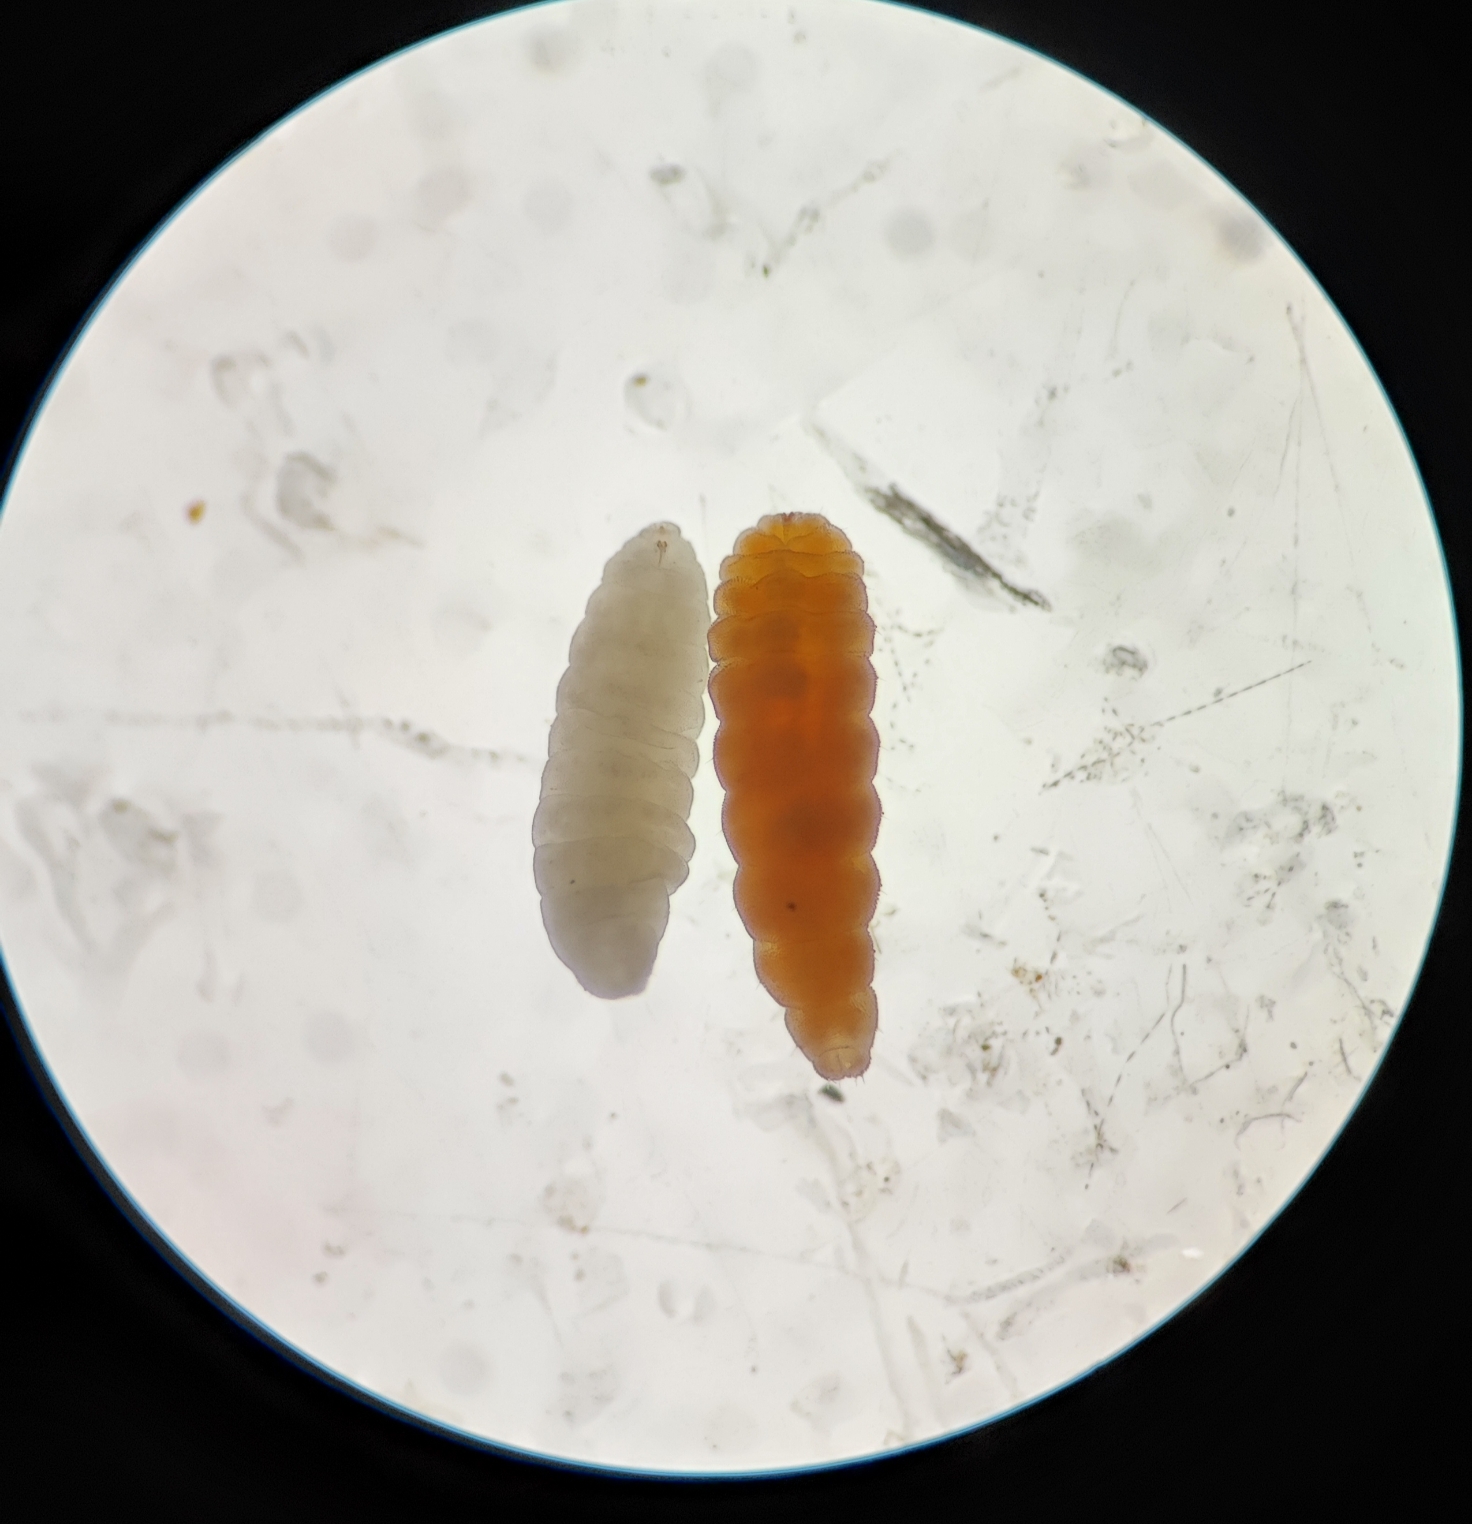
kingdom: Animalia
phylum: Arthropoda
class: Insecta
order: Diptera
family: Cecidomyiidae
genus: Macrolabis
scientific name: Macrolabis rhodophila
